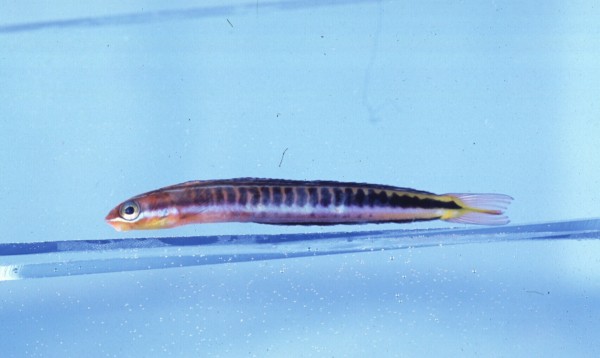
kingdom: Animalia
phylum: Chordata
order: Perciformes
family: Blenniidae
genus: Plagiotremus
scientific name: Plagiotremus tapeinosoma
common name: Hit and run blenny
